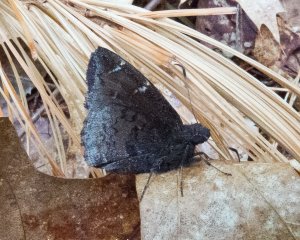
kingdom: Animalia
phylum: Arthropoda
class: Insecta
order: Lepidoptera
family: Hesperiidae
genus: Autochton
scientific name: Autochton
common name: Northern Cloudywing
